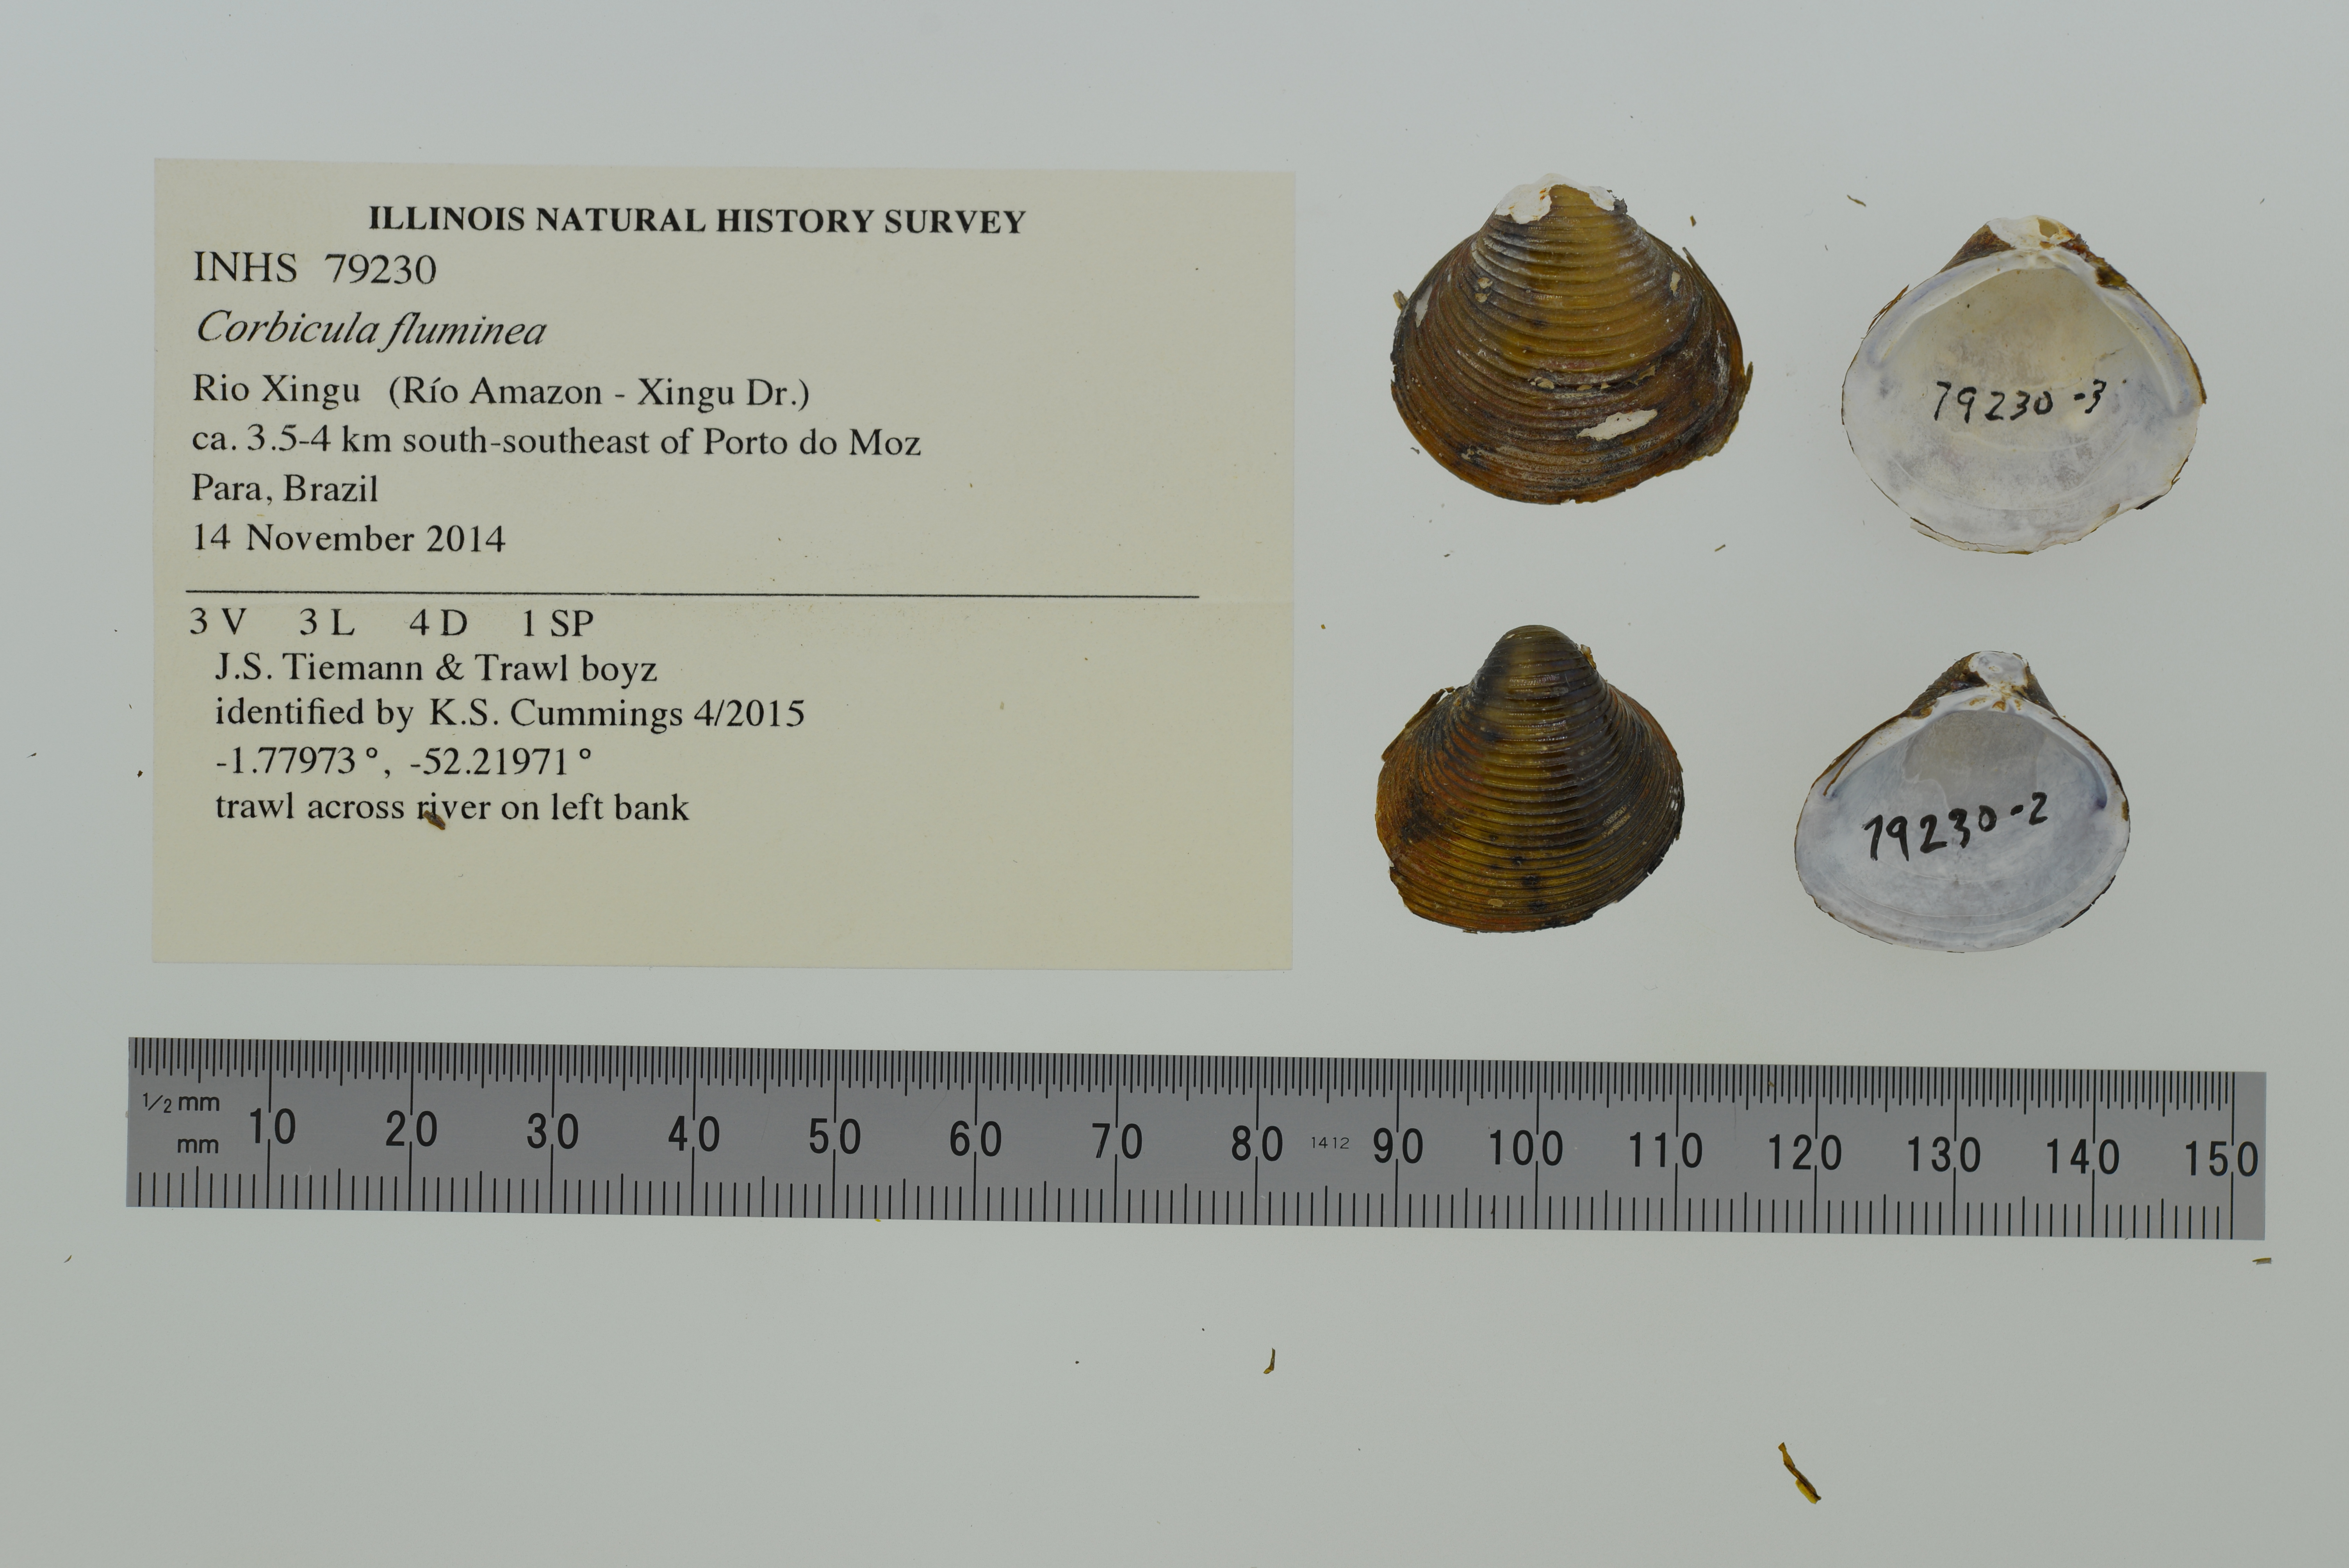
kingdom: Animalia
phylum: Mollusca
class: Bivalvia
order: Venerida
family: Cyrenidae
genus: Corbicula
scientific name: Corbicula fluminea
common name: Asian clam
